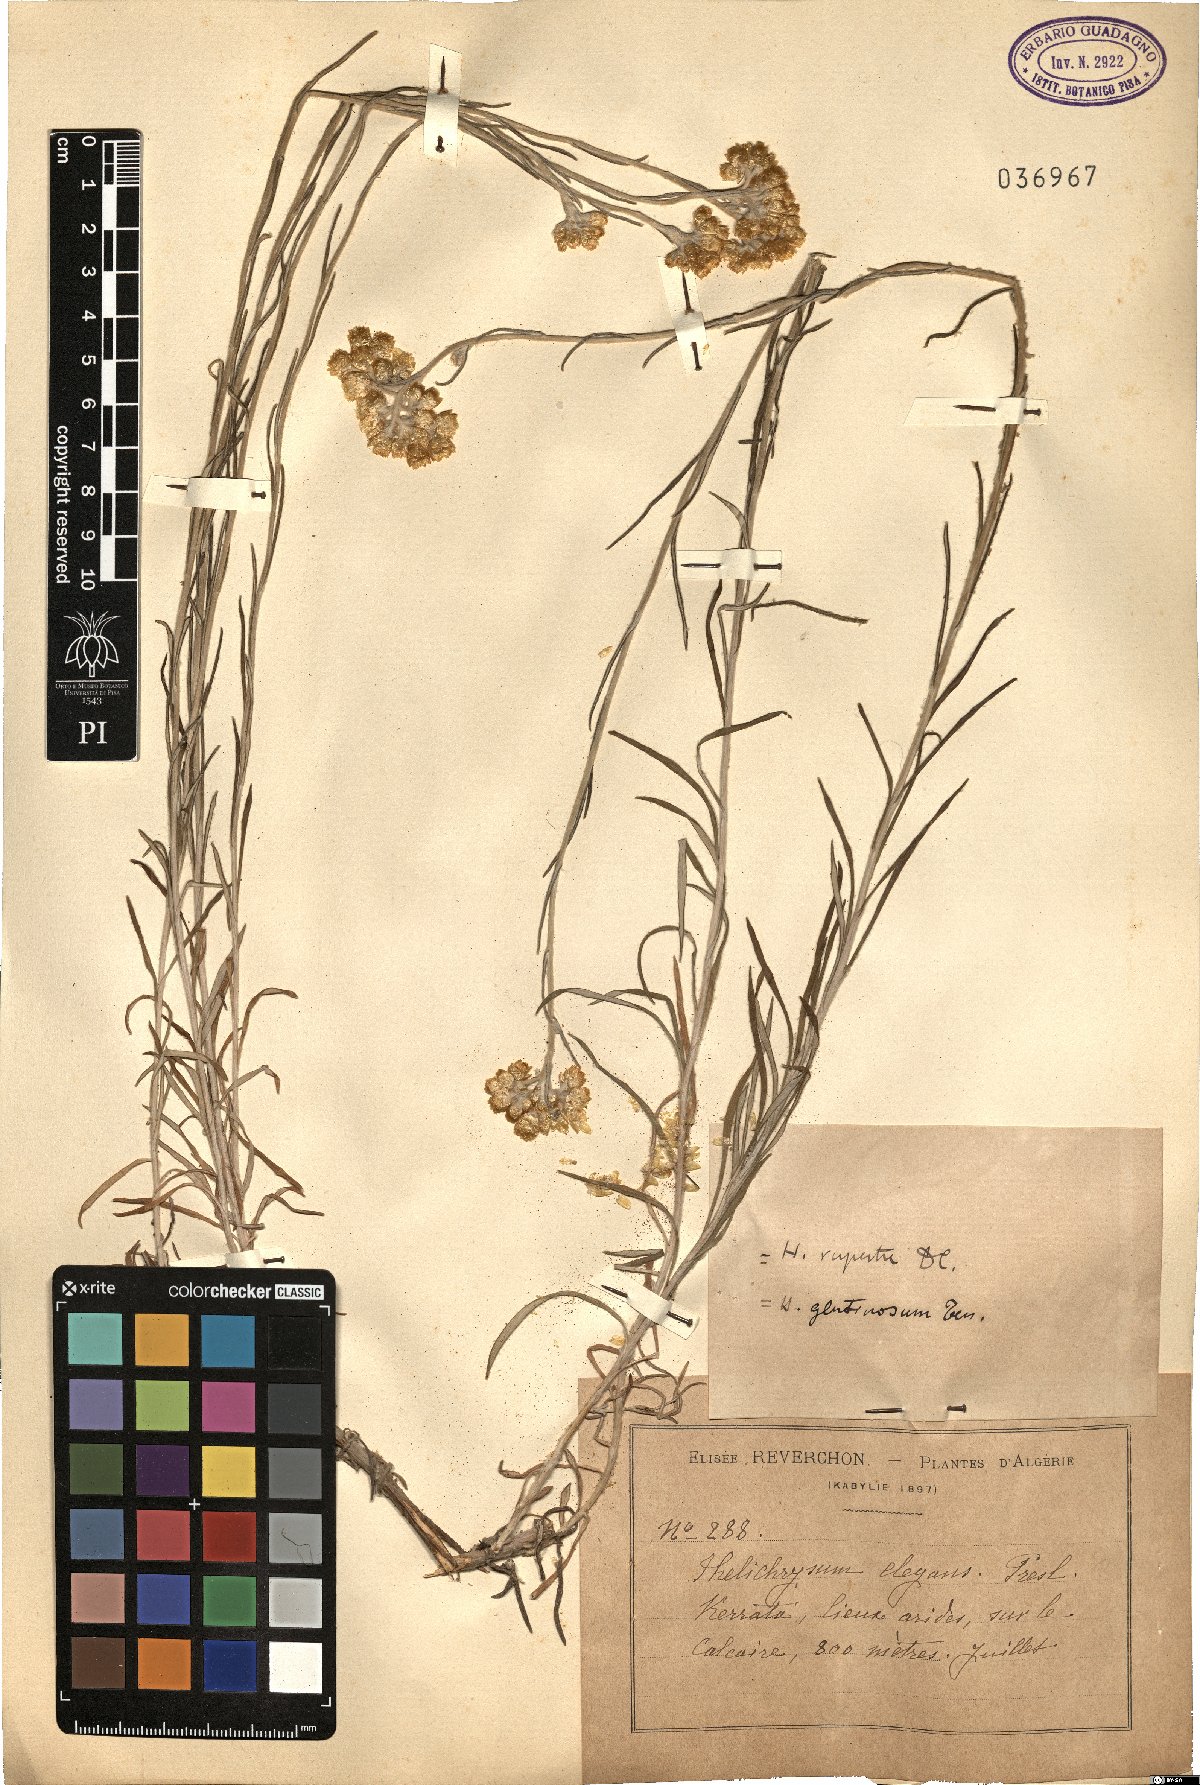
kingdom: Plantae
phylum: Tracheophyta
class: Magnoliopsida
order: Asterales
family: Asteraceae
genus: Helichrysum
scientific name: Helichrysum pendulum
